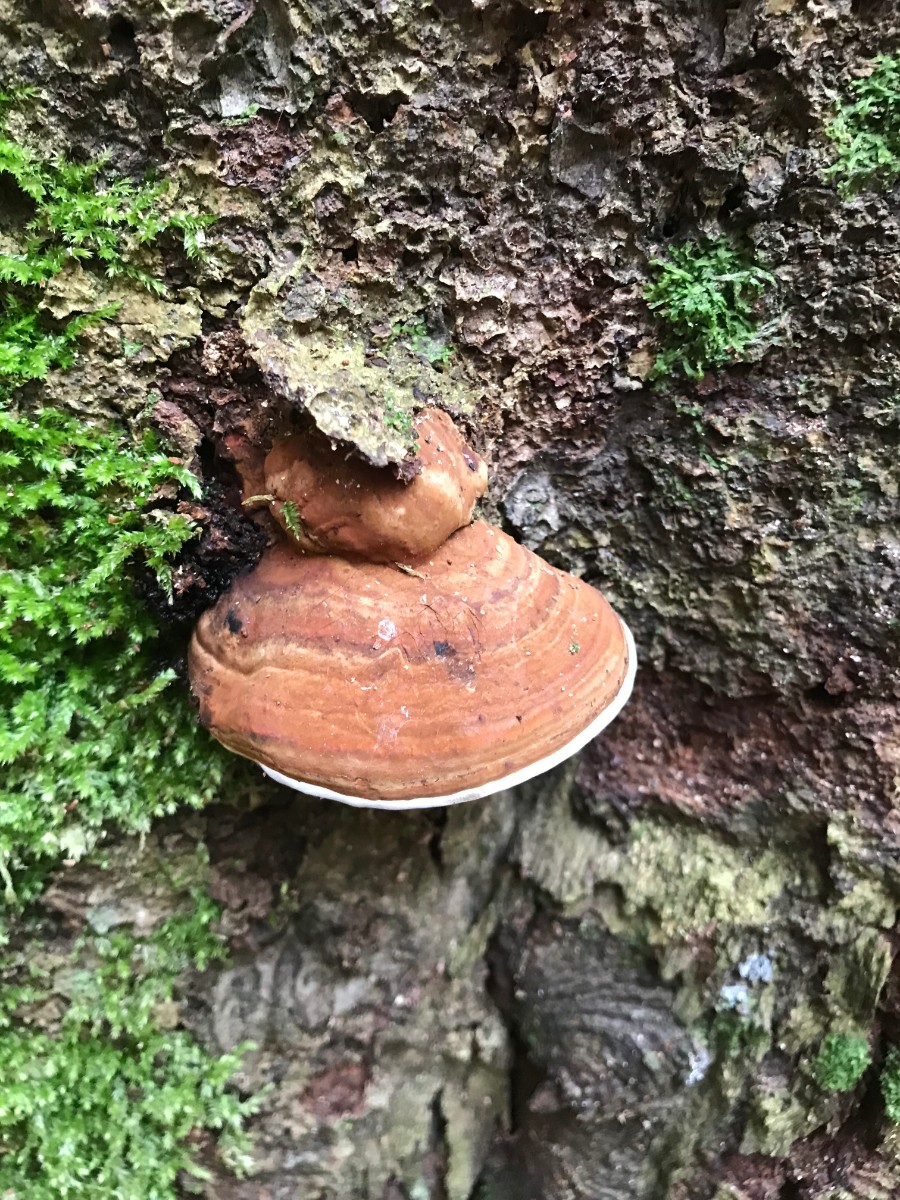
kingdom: Fungi
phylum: Basidiomycota
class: Agaricomycetes
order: Polyporales
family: Polyporaceae
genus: Ganoderma
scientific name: Ganoderma applanatum
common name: flad lakporesvamp
